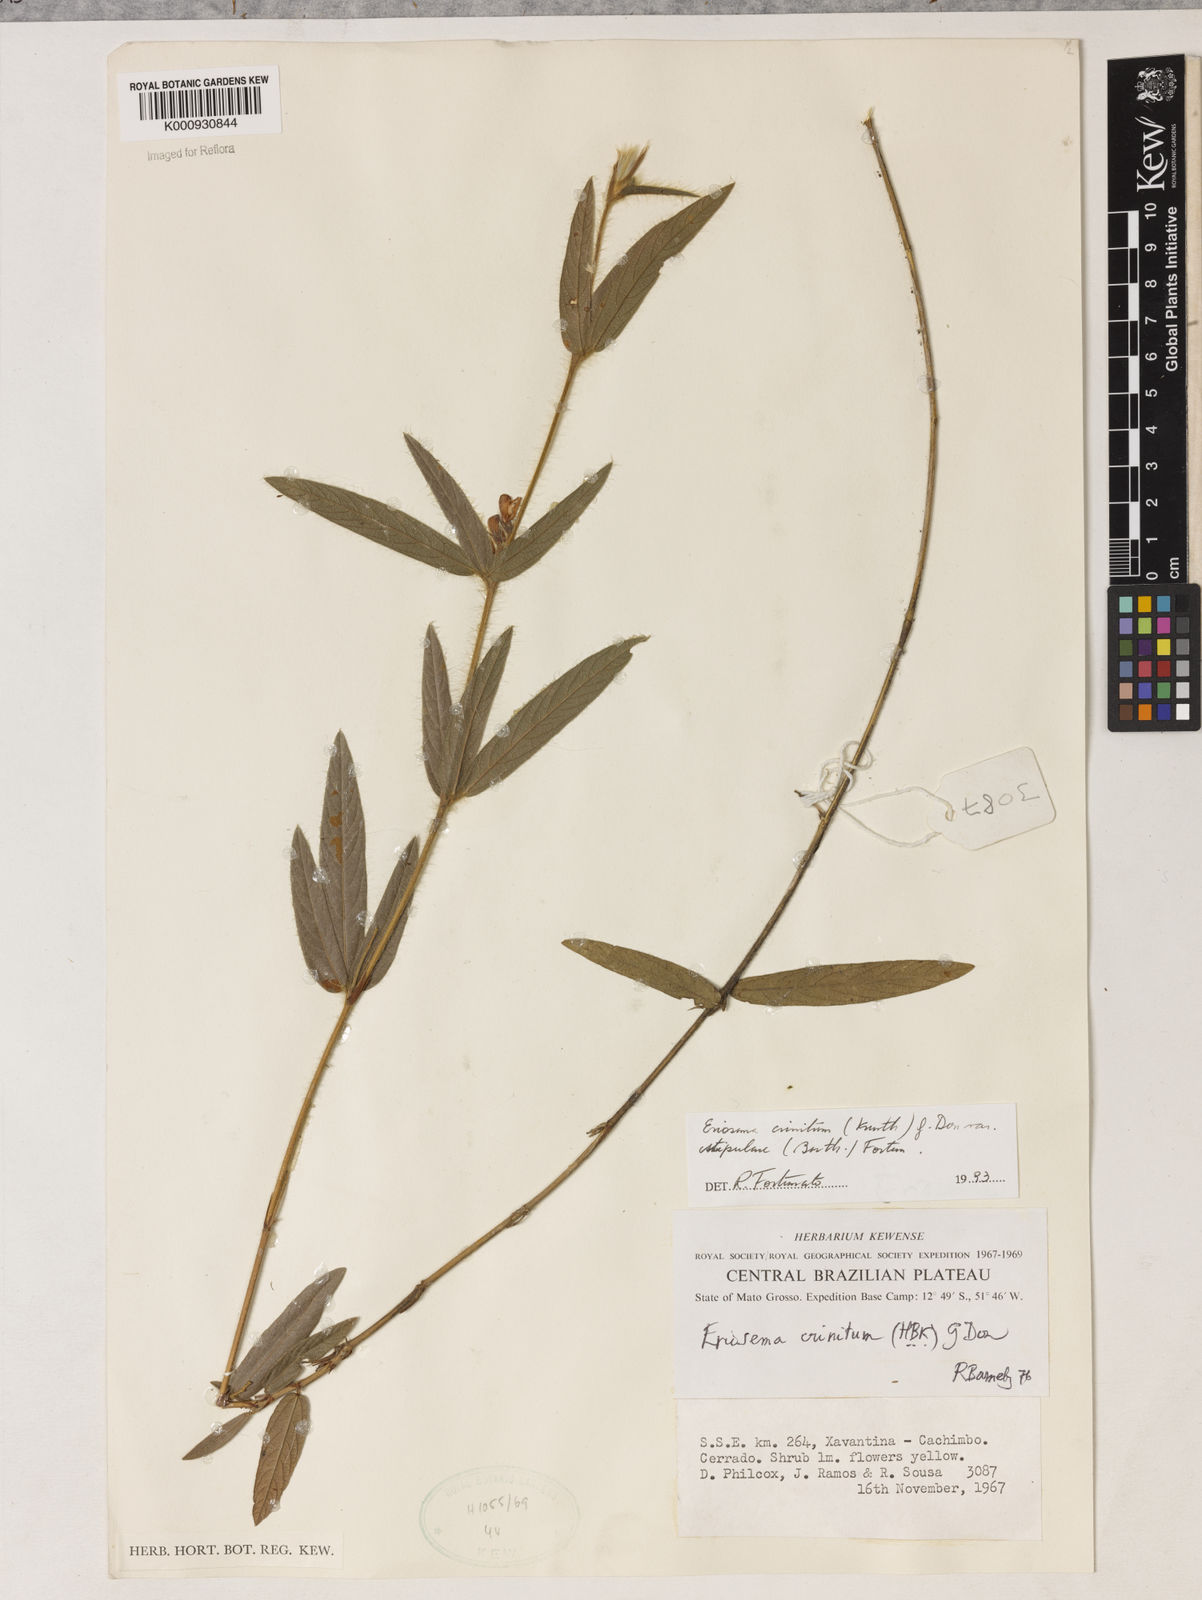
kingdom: Plantae
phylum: Tracheophyta
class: Magnoliopsida
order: Fabales
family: Fabaceae
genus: Eriosema
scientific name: Eriosema crinitum
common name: Sand pea
